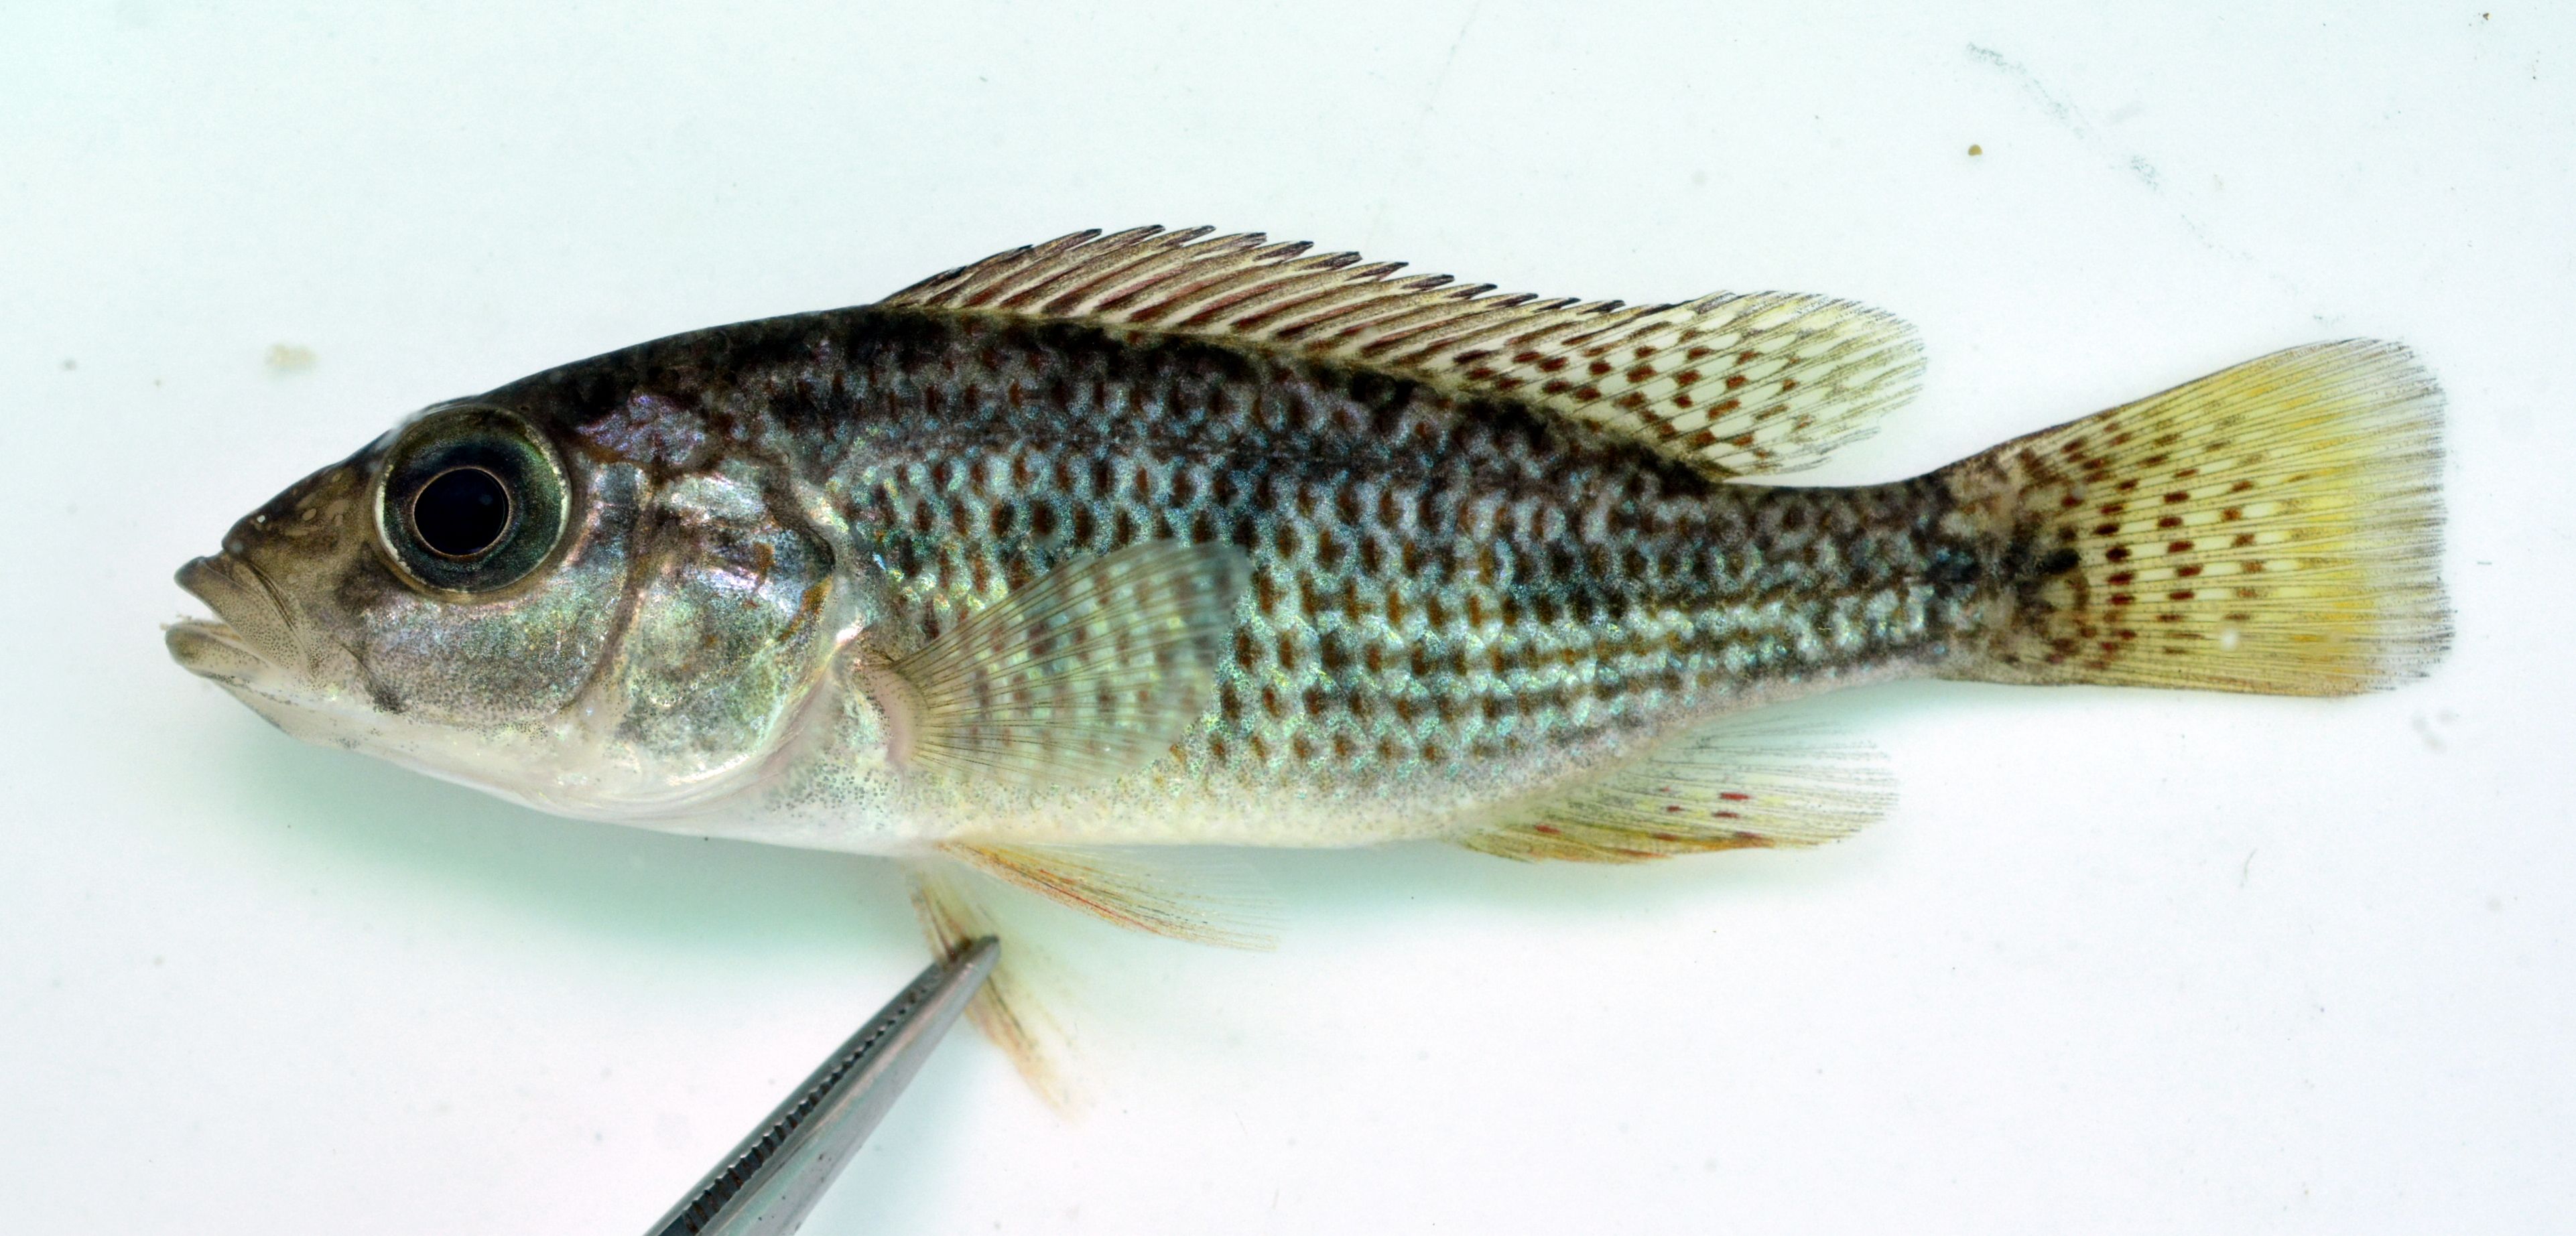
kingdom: Animalia
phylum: Chordata
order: Perciformes
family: Cichlidae
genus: Pharyngochromis
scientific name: Pharyngochromis acuticeps
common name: Zambezi happy
